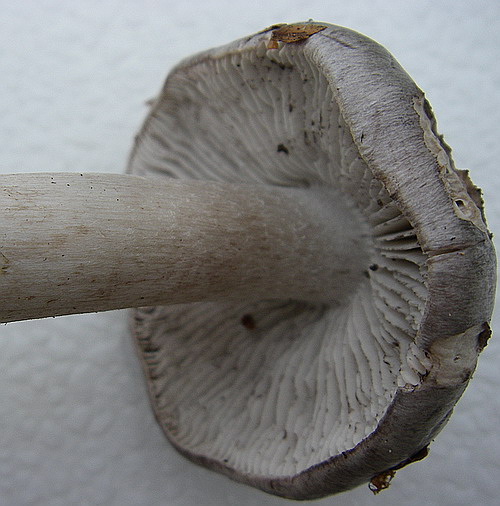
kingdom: Fungi
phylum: Basidiomycota
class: Agaricomycetes
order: Agaricales
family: Tricholomataceae
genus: Tricholoma
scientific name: Tricholoma sciodes
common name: stribet ridderhat
